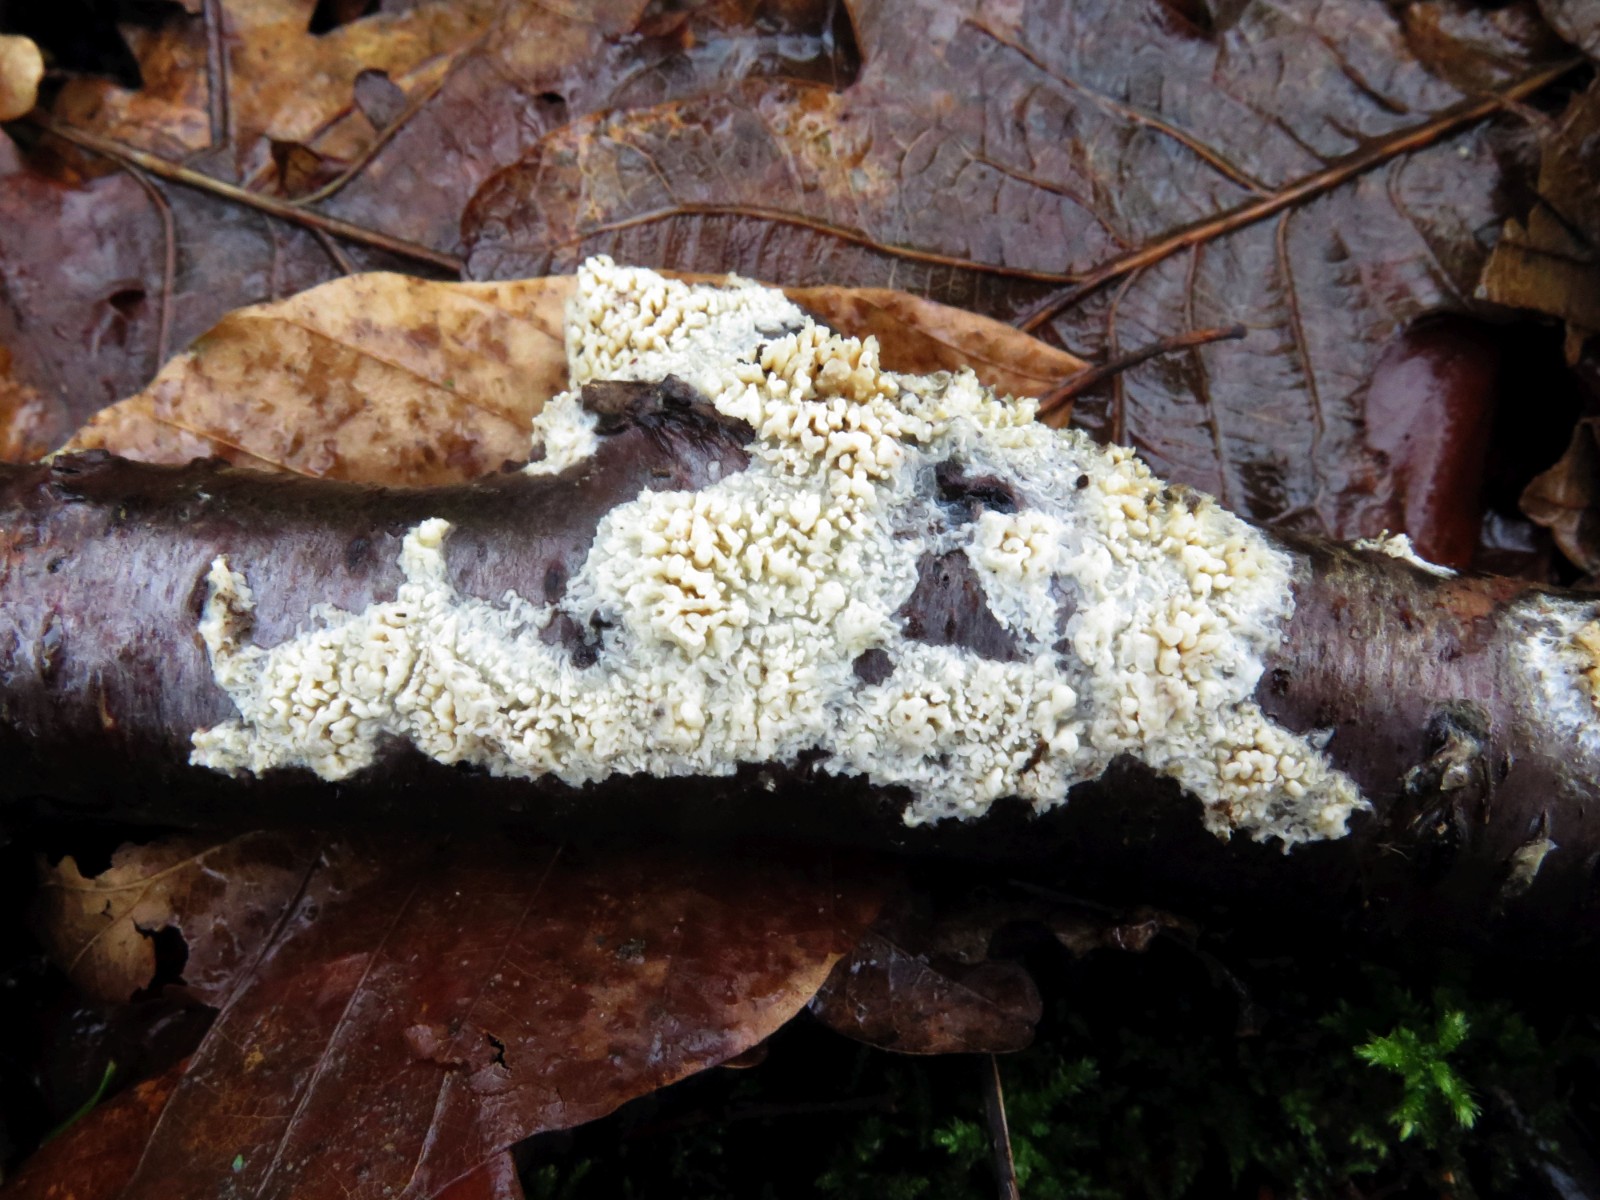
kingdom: Fungi
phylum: Basidiomycota
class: Agaricomycetes
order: Hymenochaetales
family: Schizoporaceae
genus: Schizopora
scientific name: Schizopora paradoxa
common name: hvid tandsvamp
